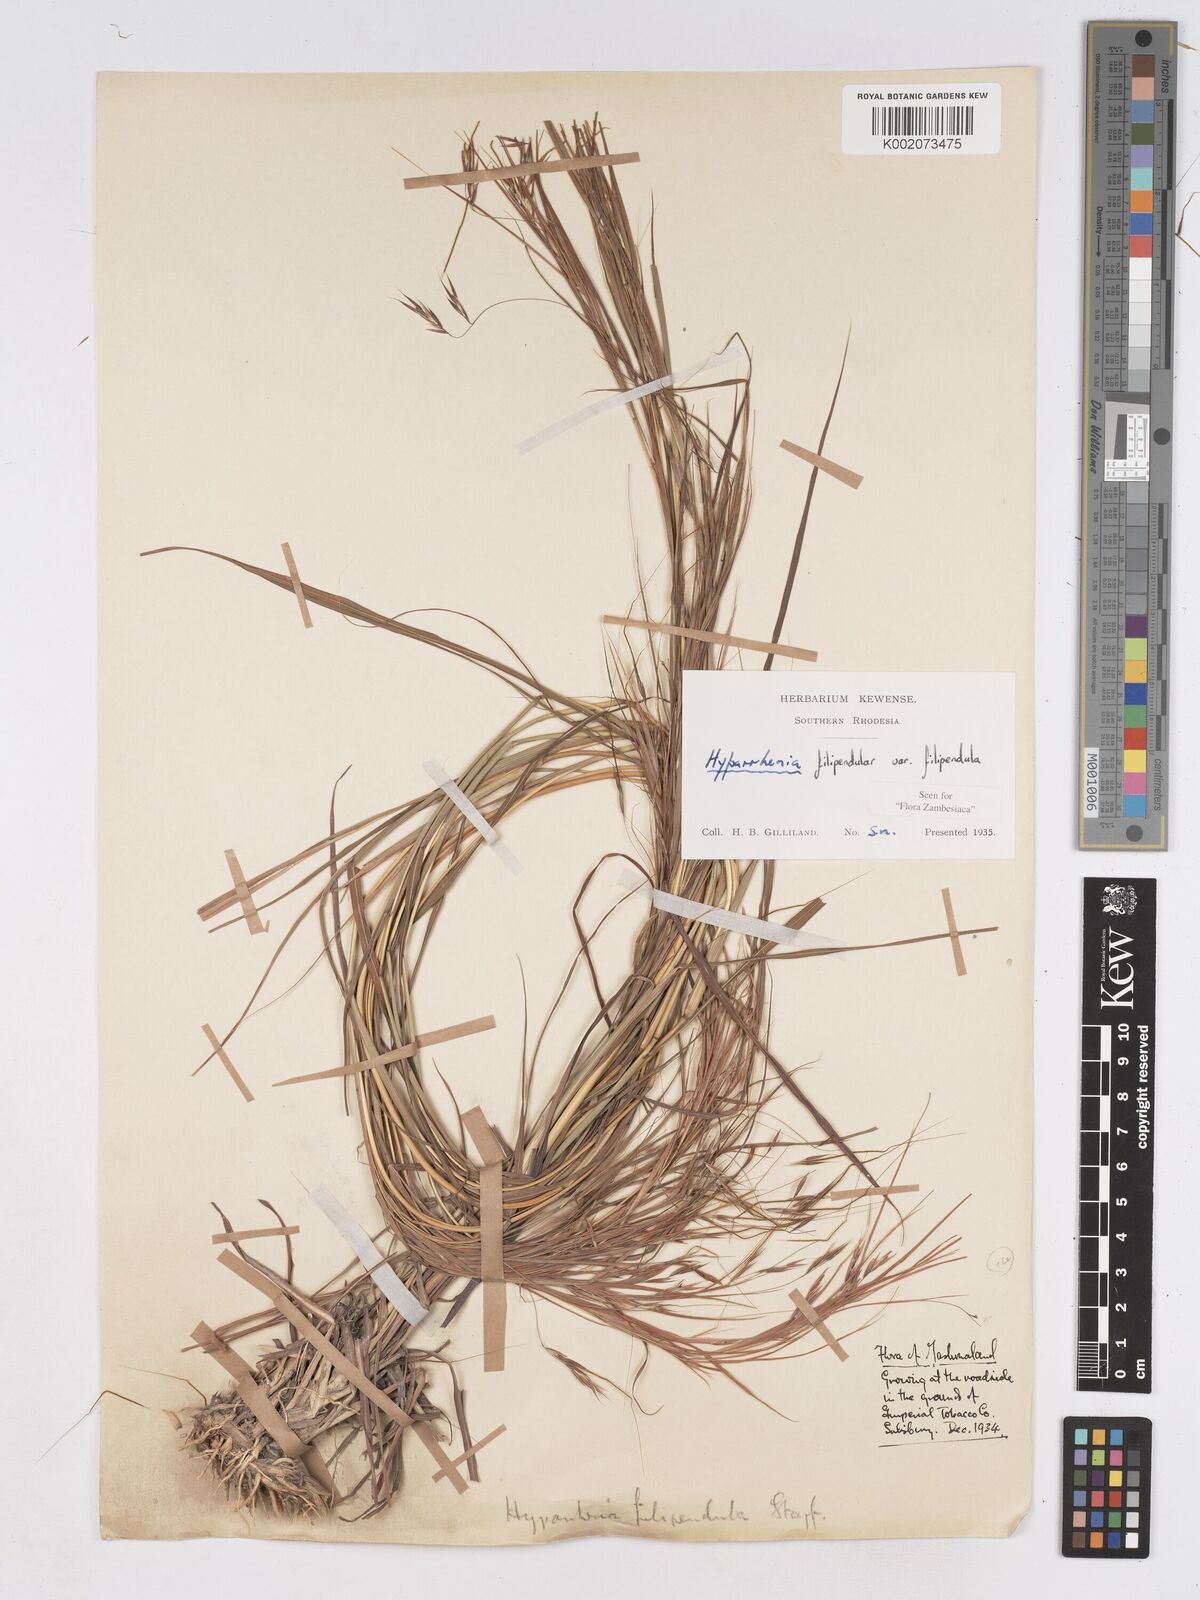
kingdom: Plantae
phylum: Tracheophyta
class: Liliopsida
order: Poales
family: Poaceae
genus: Hyparrhenia
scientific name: Hyparrhenia filipendula
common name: Tambookie grass
